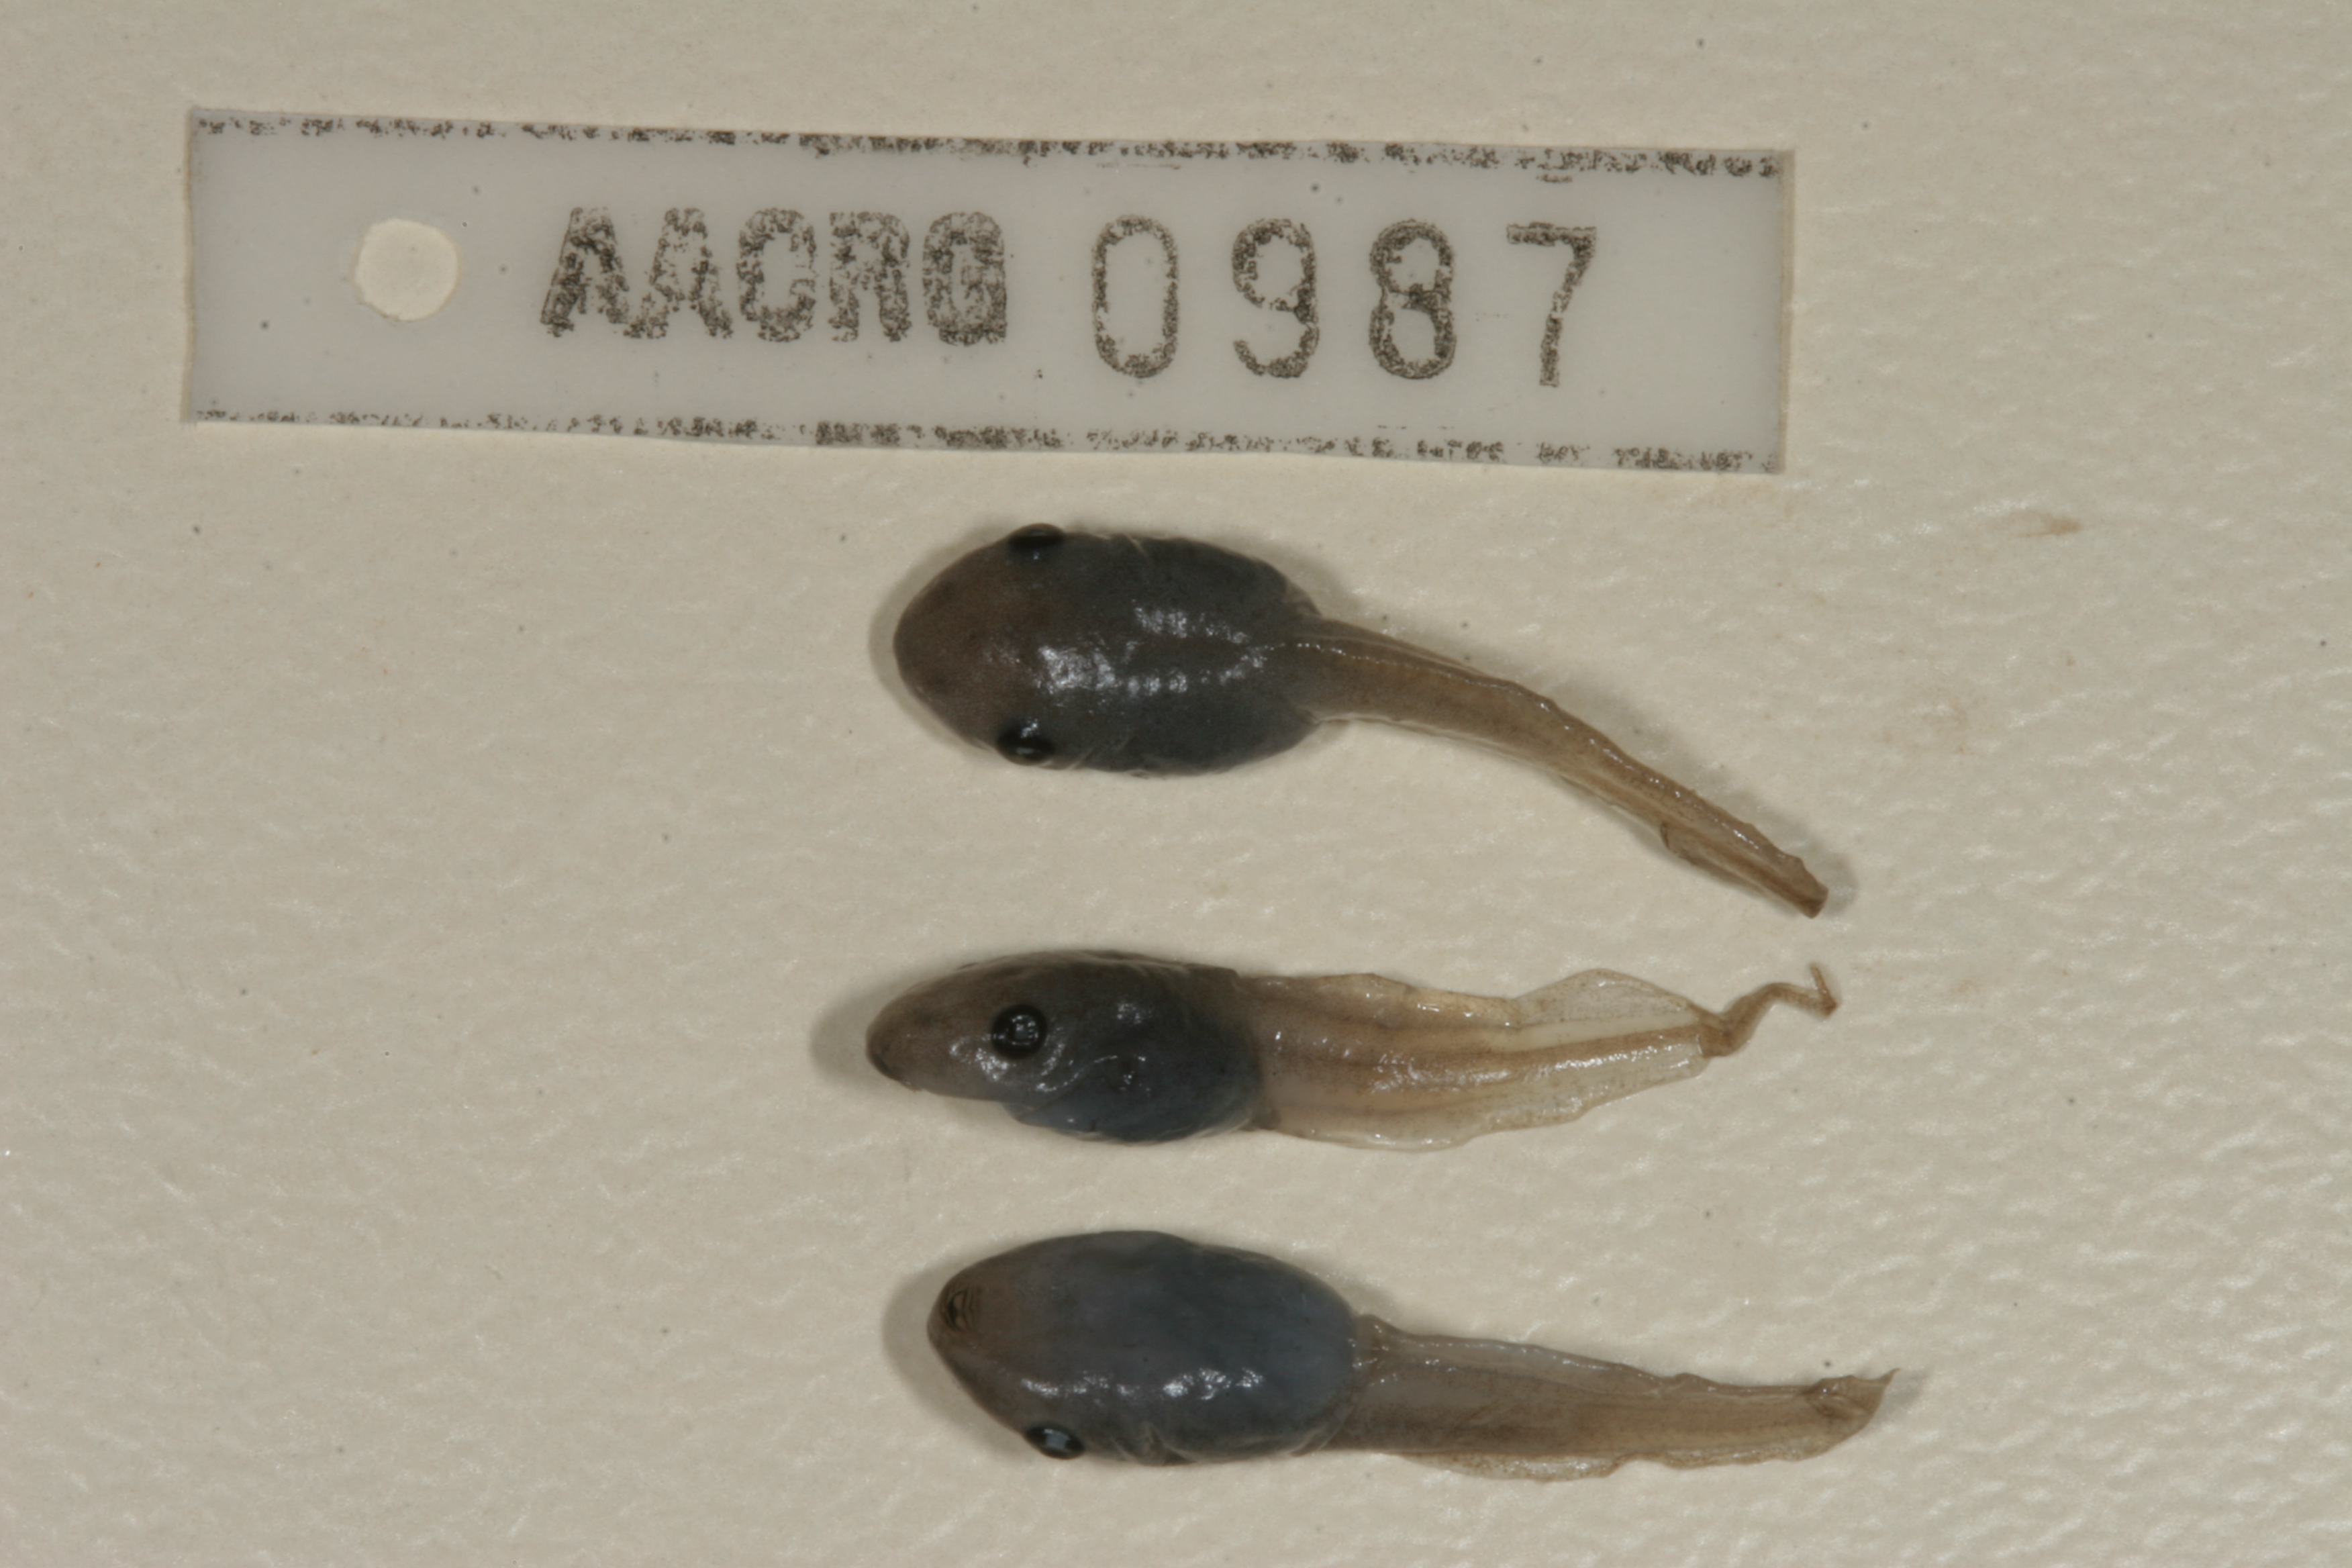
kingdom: Animalia
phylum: Chordata
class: Amphibia
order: Anura
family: Hemisotidae
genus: Hemisus
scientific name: Hemisus marmoratus
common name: Mottled shovel-nosed frog
